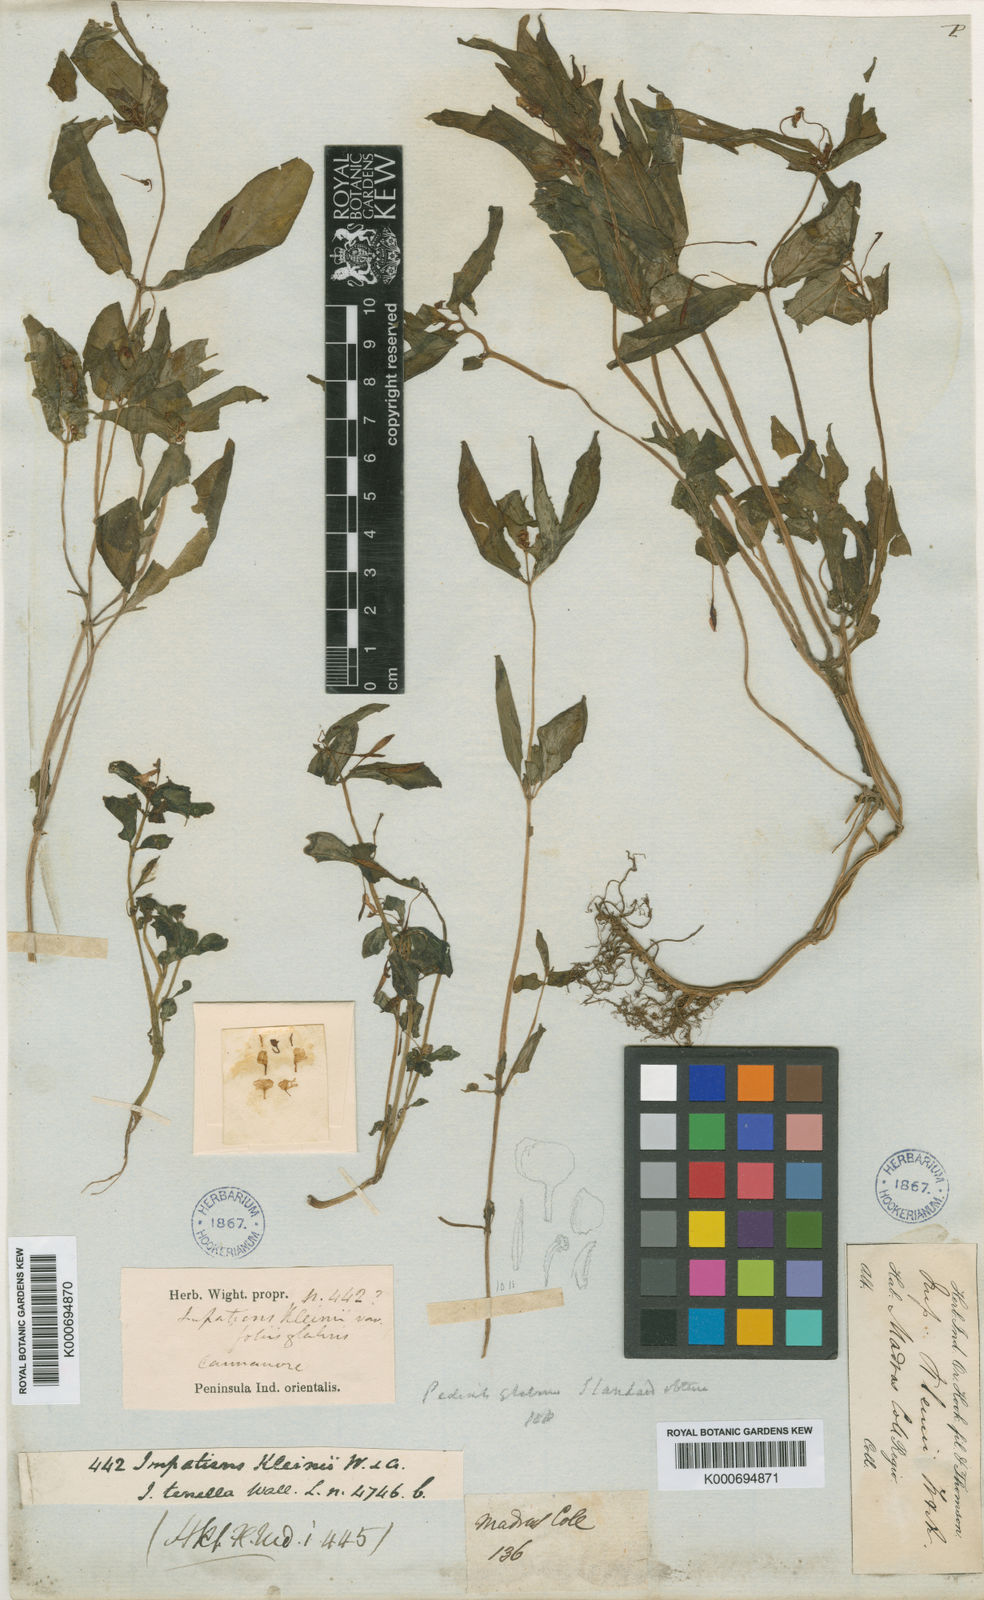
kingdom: Plantae
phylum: Tracheophyta
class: Magnoliopsida
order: Ericales
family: Balsaminaceae
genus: Impatiens
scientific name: Impatiens minor
